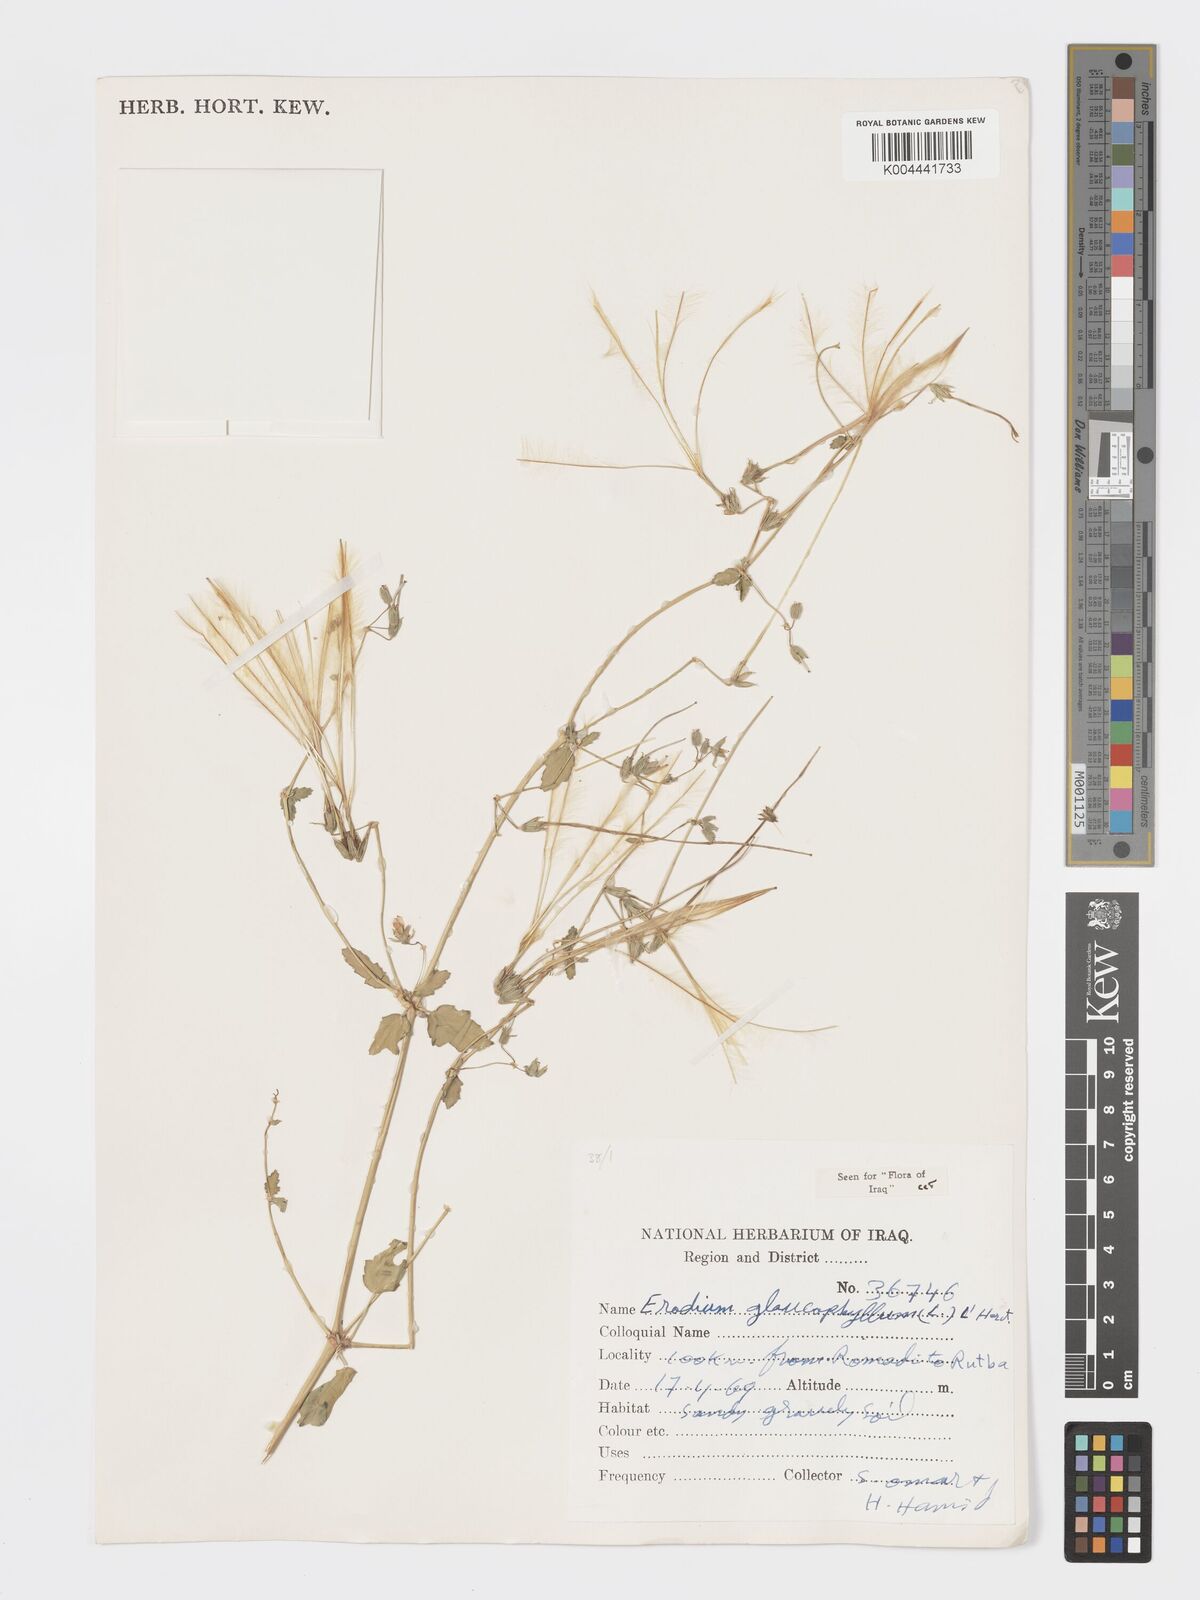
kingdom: Plantae
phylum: Tracheophyta
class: Magnoliopsida
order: Geraniales
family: Geraniaceae
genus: Erodium
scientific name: Erodium glaucophyllum
